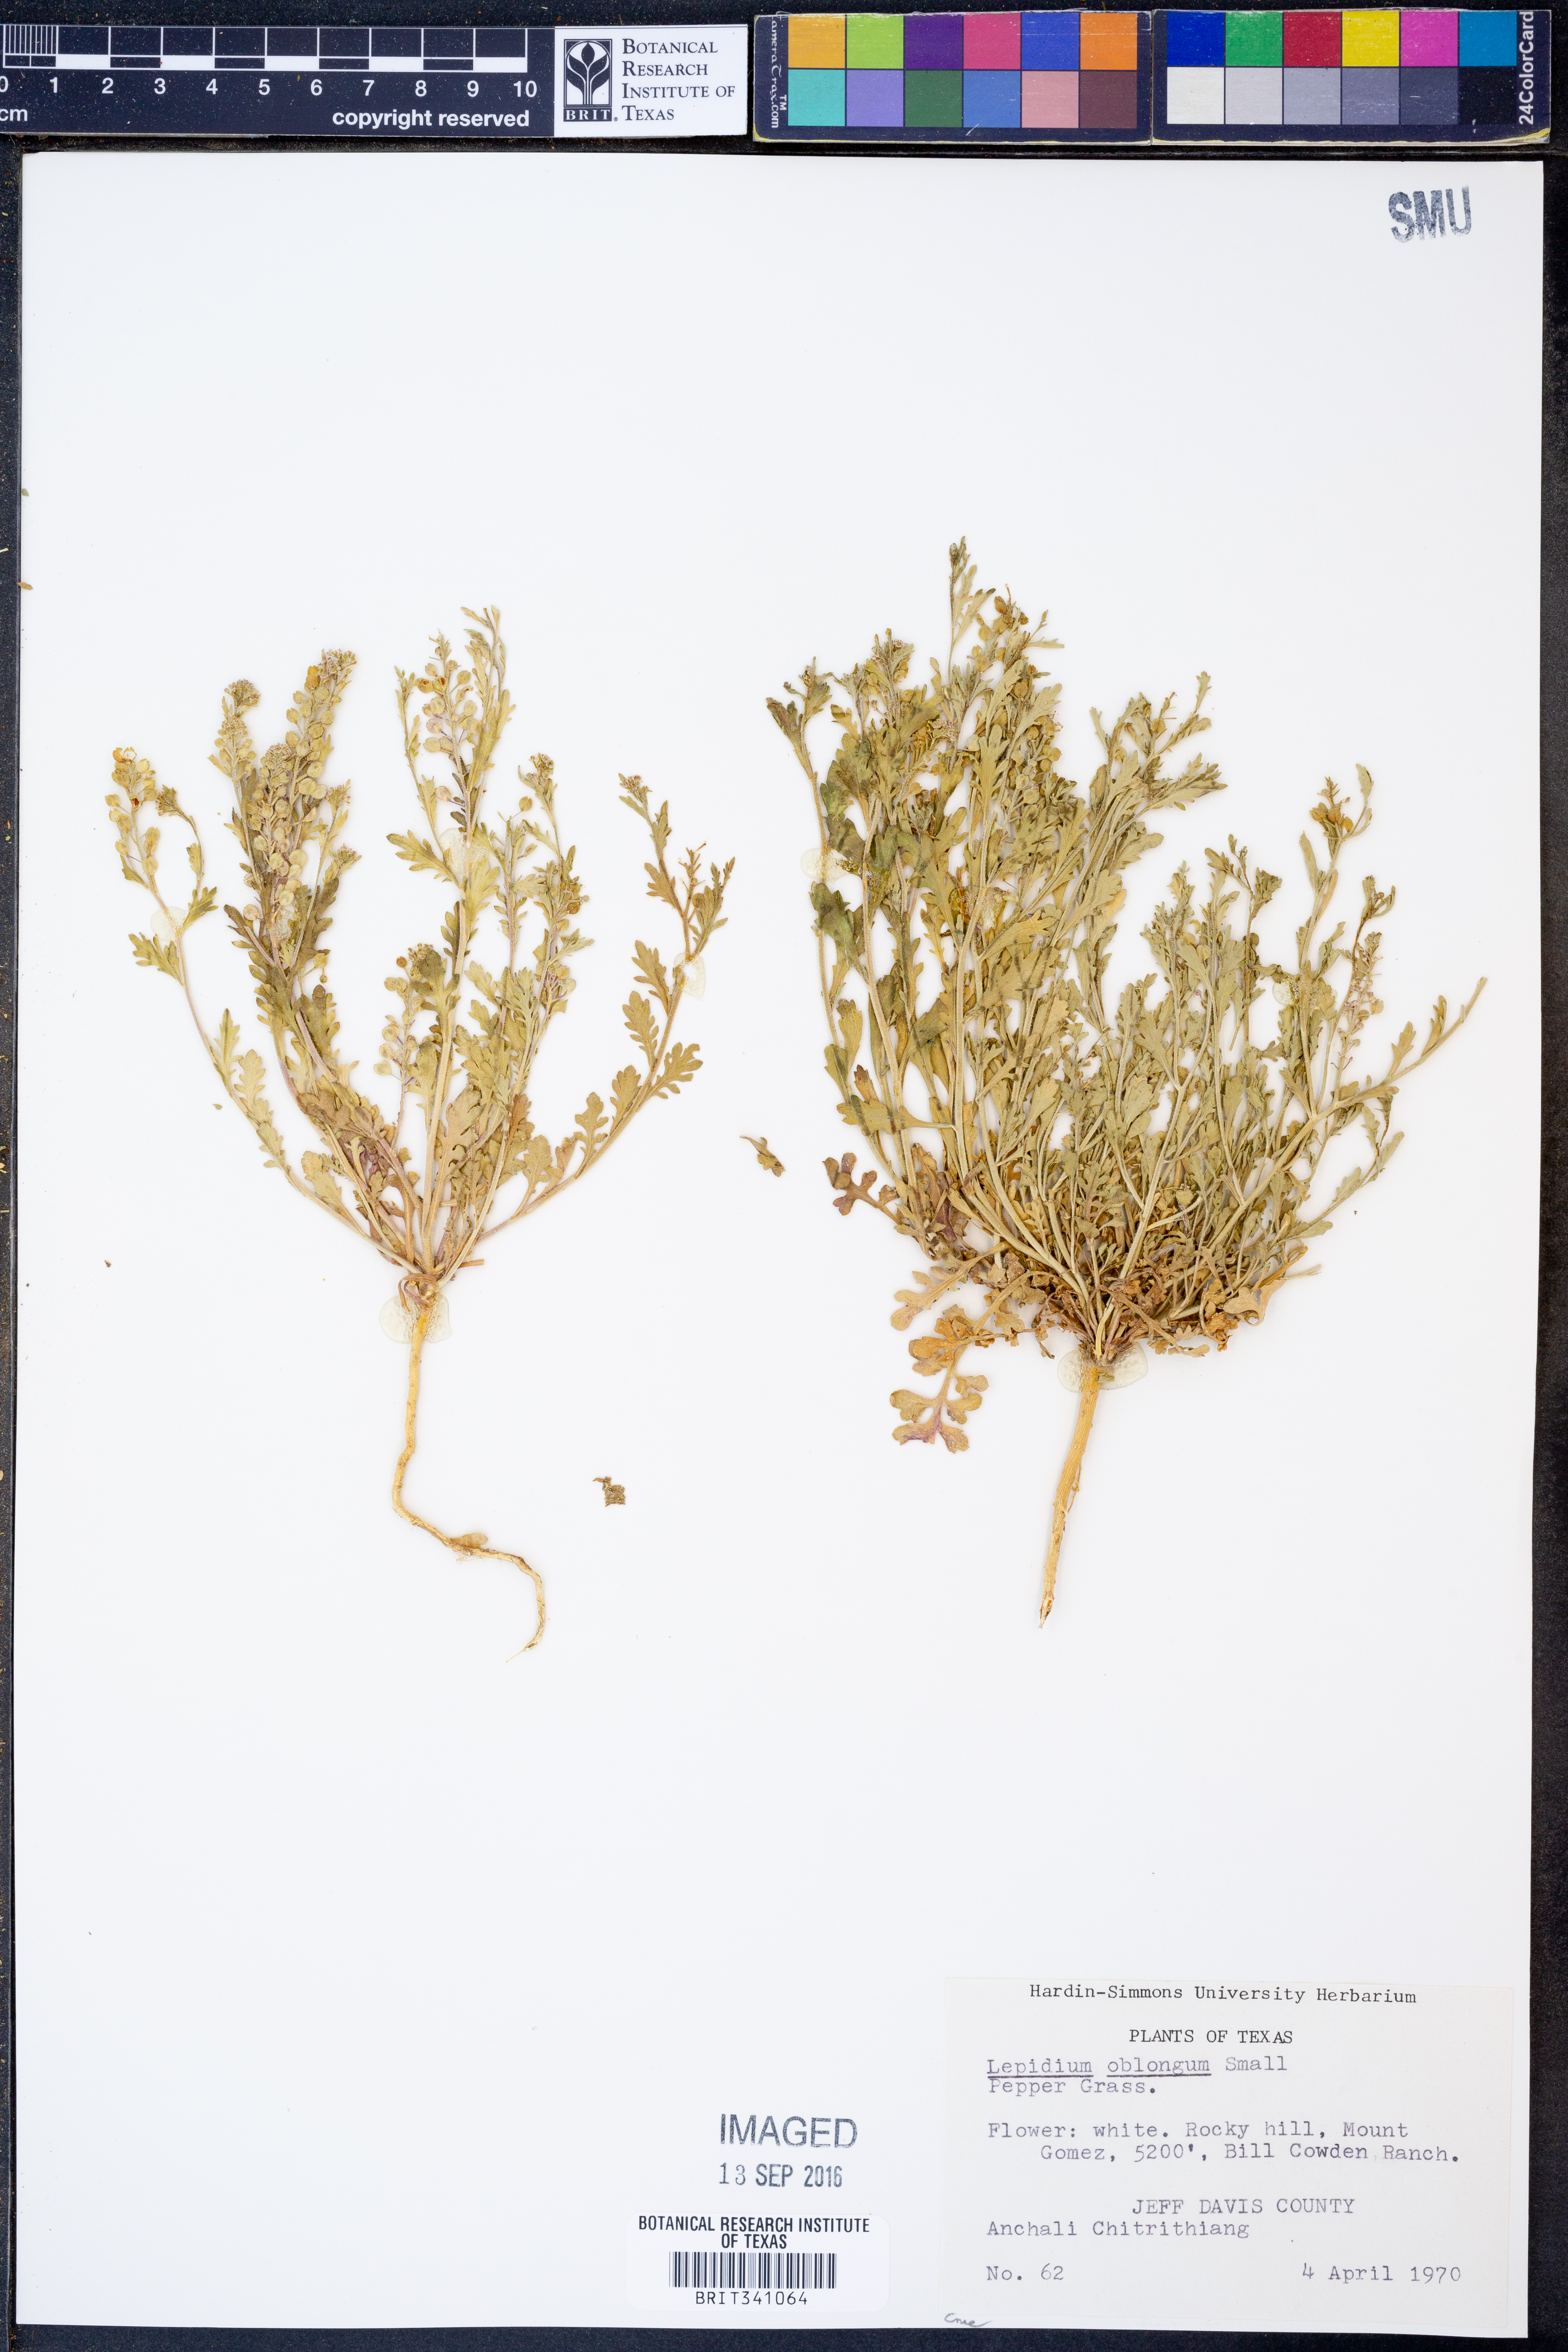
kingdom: Plantae
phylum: Tracheophyta
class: Magnoliopsida
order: Brassicales
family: Brassicaceae
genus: Lepidium
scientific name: Lepidium oblongum
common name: Veiny pepperweed
